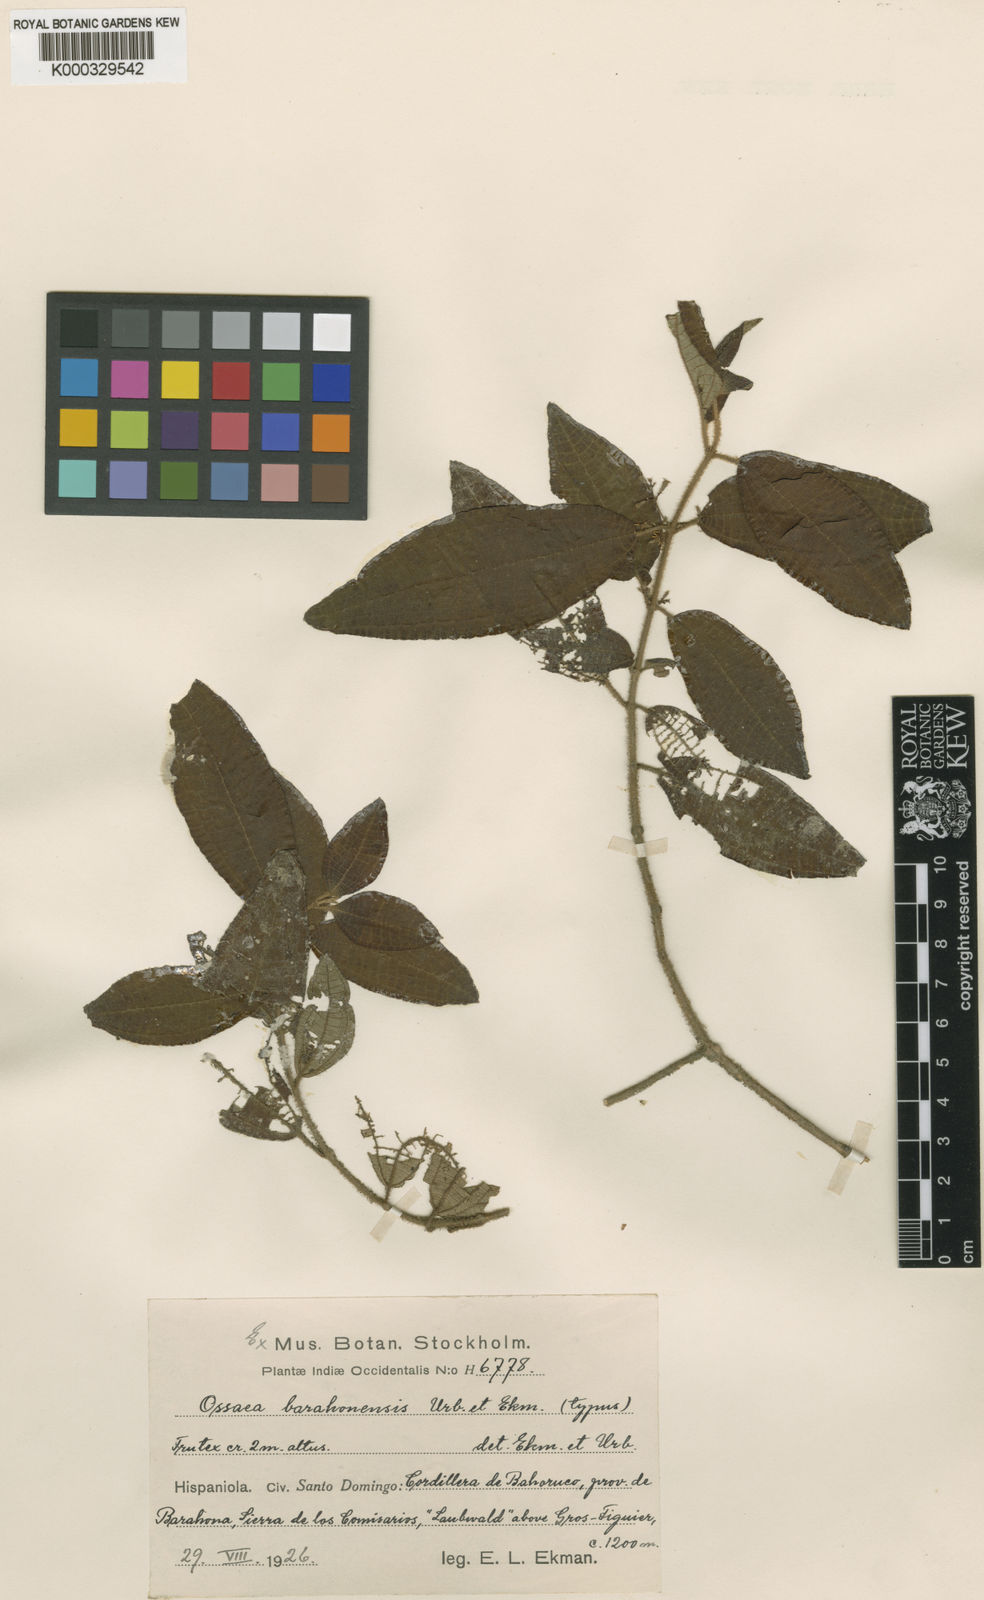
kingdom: Plantae
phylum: Tracheophyta
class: Magnoliopsida
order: Myrtales
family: Melastomataceae
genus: Miconia
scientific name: Miconia barahonensis
